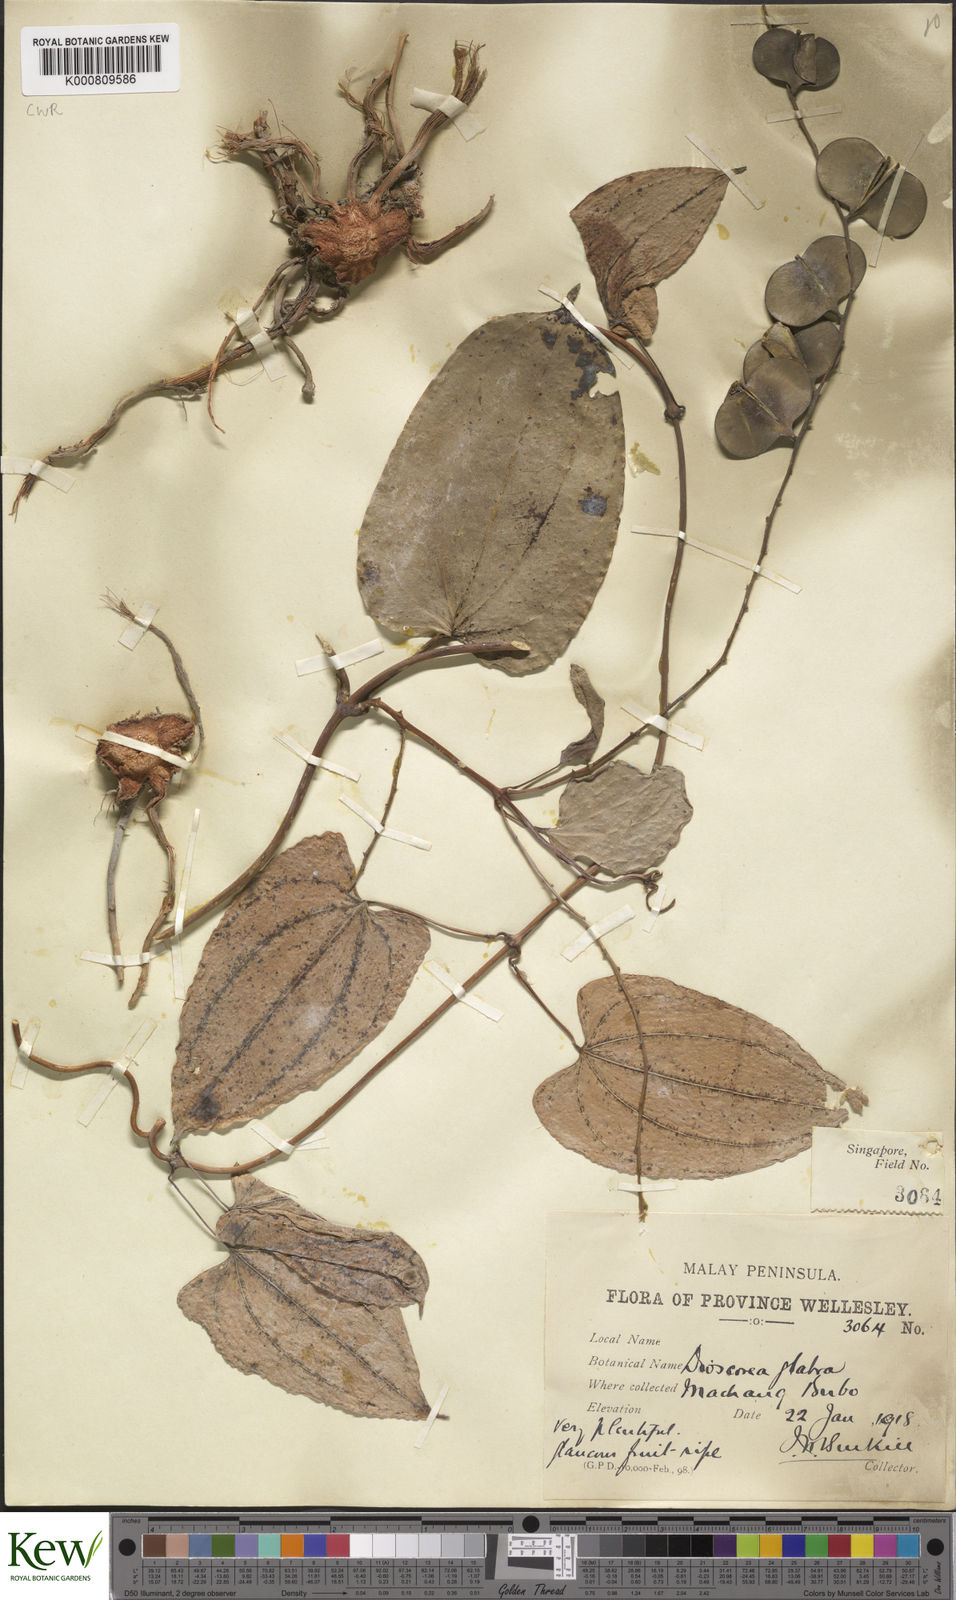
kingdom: Plantae
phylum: Tracheophyta
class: Liliopsida
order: Dioscoreales
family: Dioscoreaceae
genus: Dioscorea
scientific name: Dioscorea glabra
